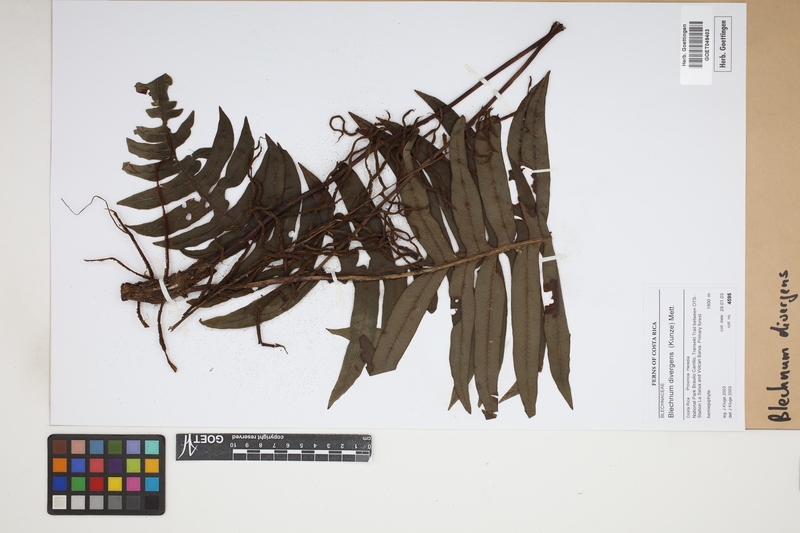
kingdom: Plantae
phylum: Tracheophyta
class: Polypodiopsida
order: Polypodiales
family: Blechnaceae
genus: Austroblechnum
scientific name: Austroblechnum divergens
